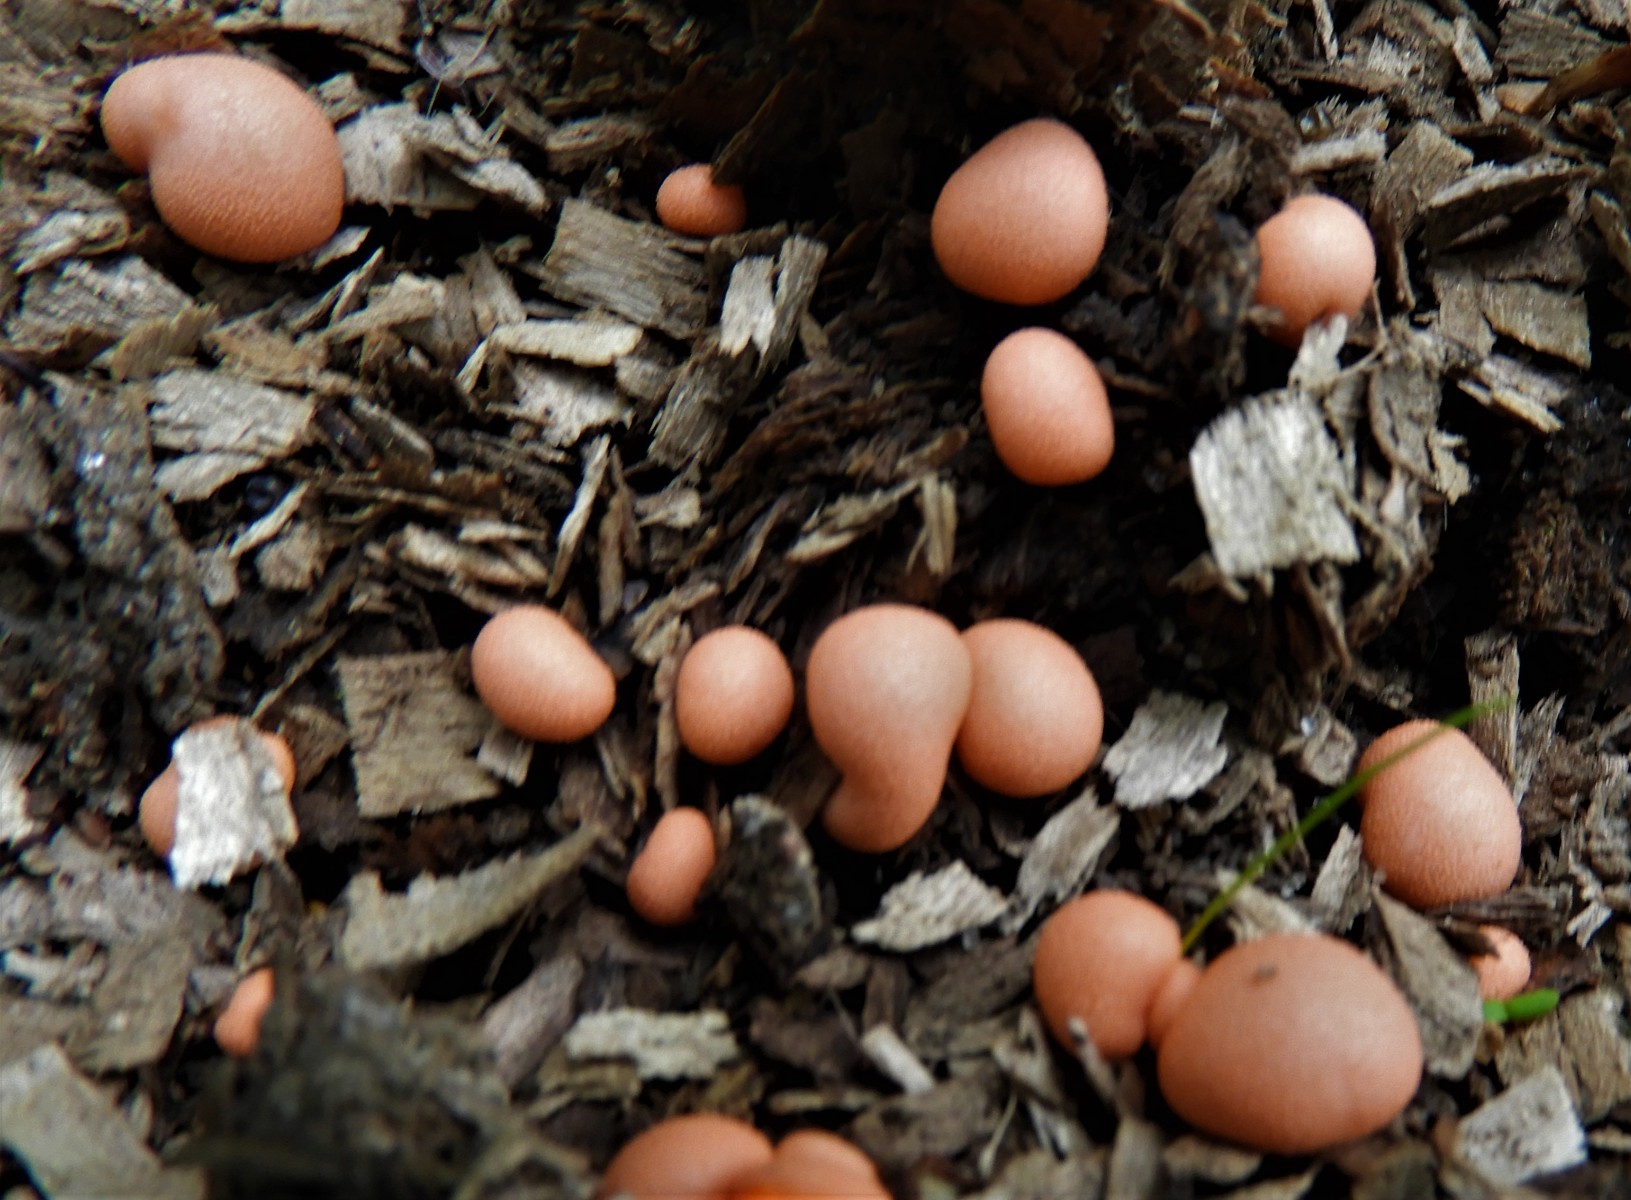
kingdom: Protozoa
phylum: Mycetozoa
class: Myxomycetes
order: Cribrariales
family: Tubiferaceae
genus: Lycogala
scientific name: Lycogala epidendrum
